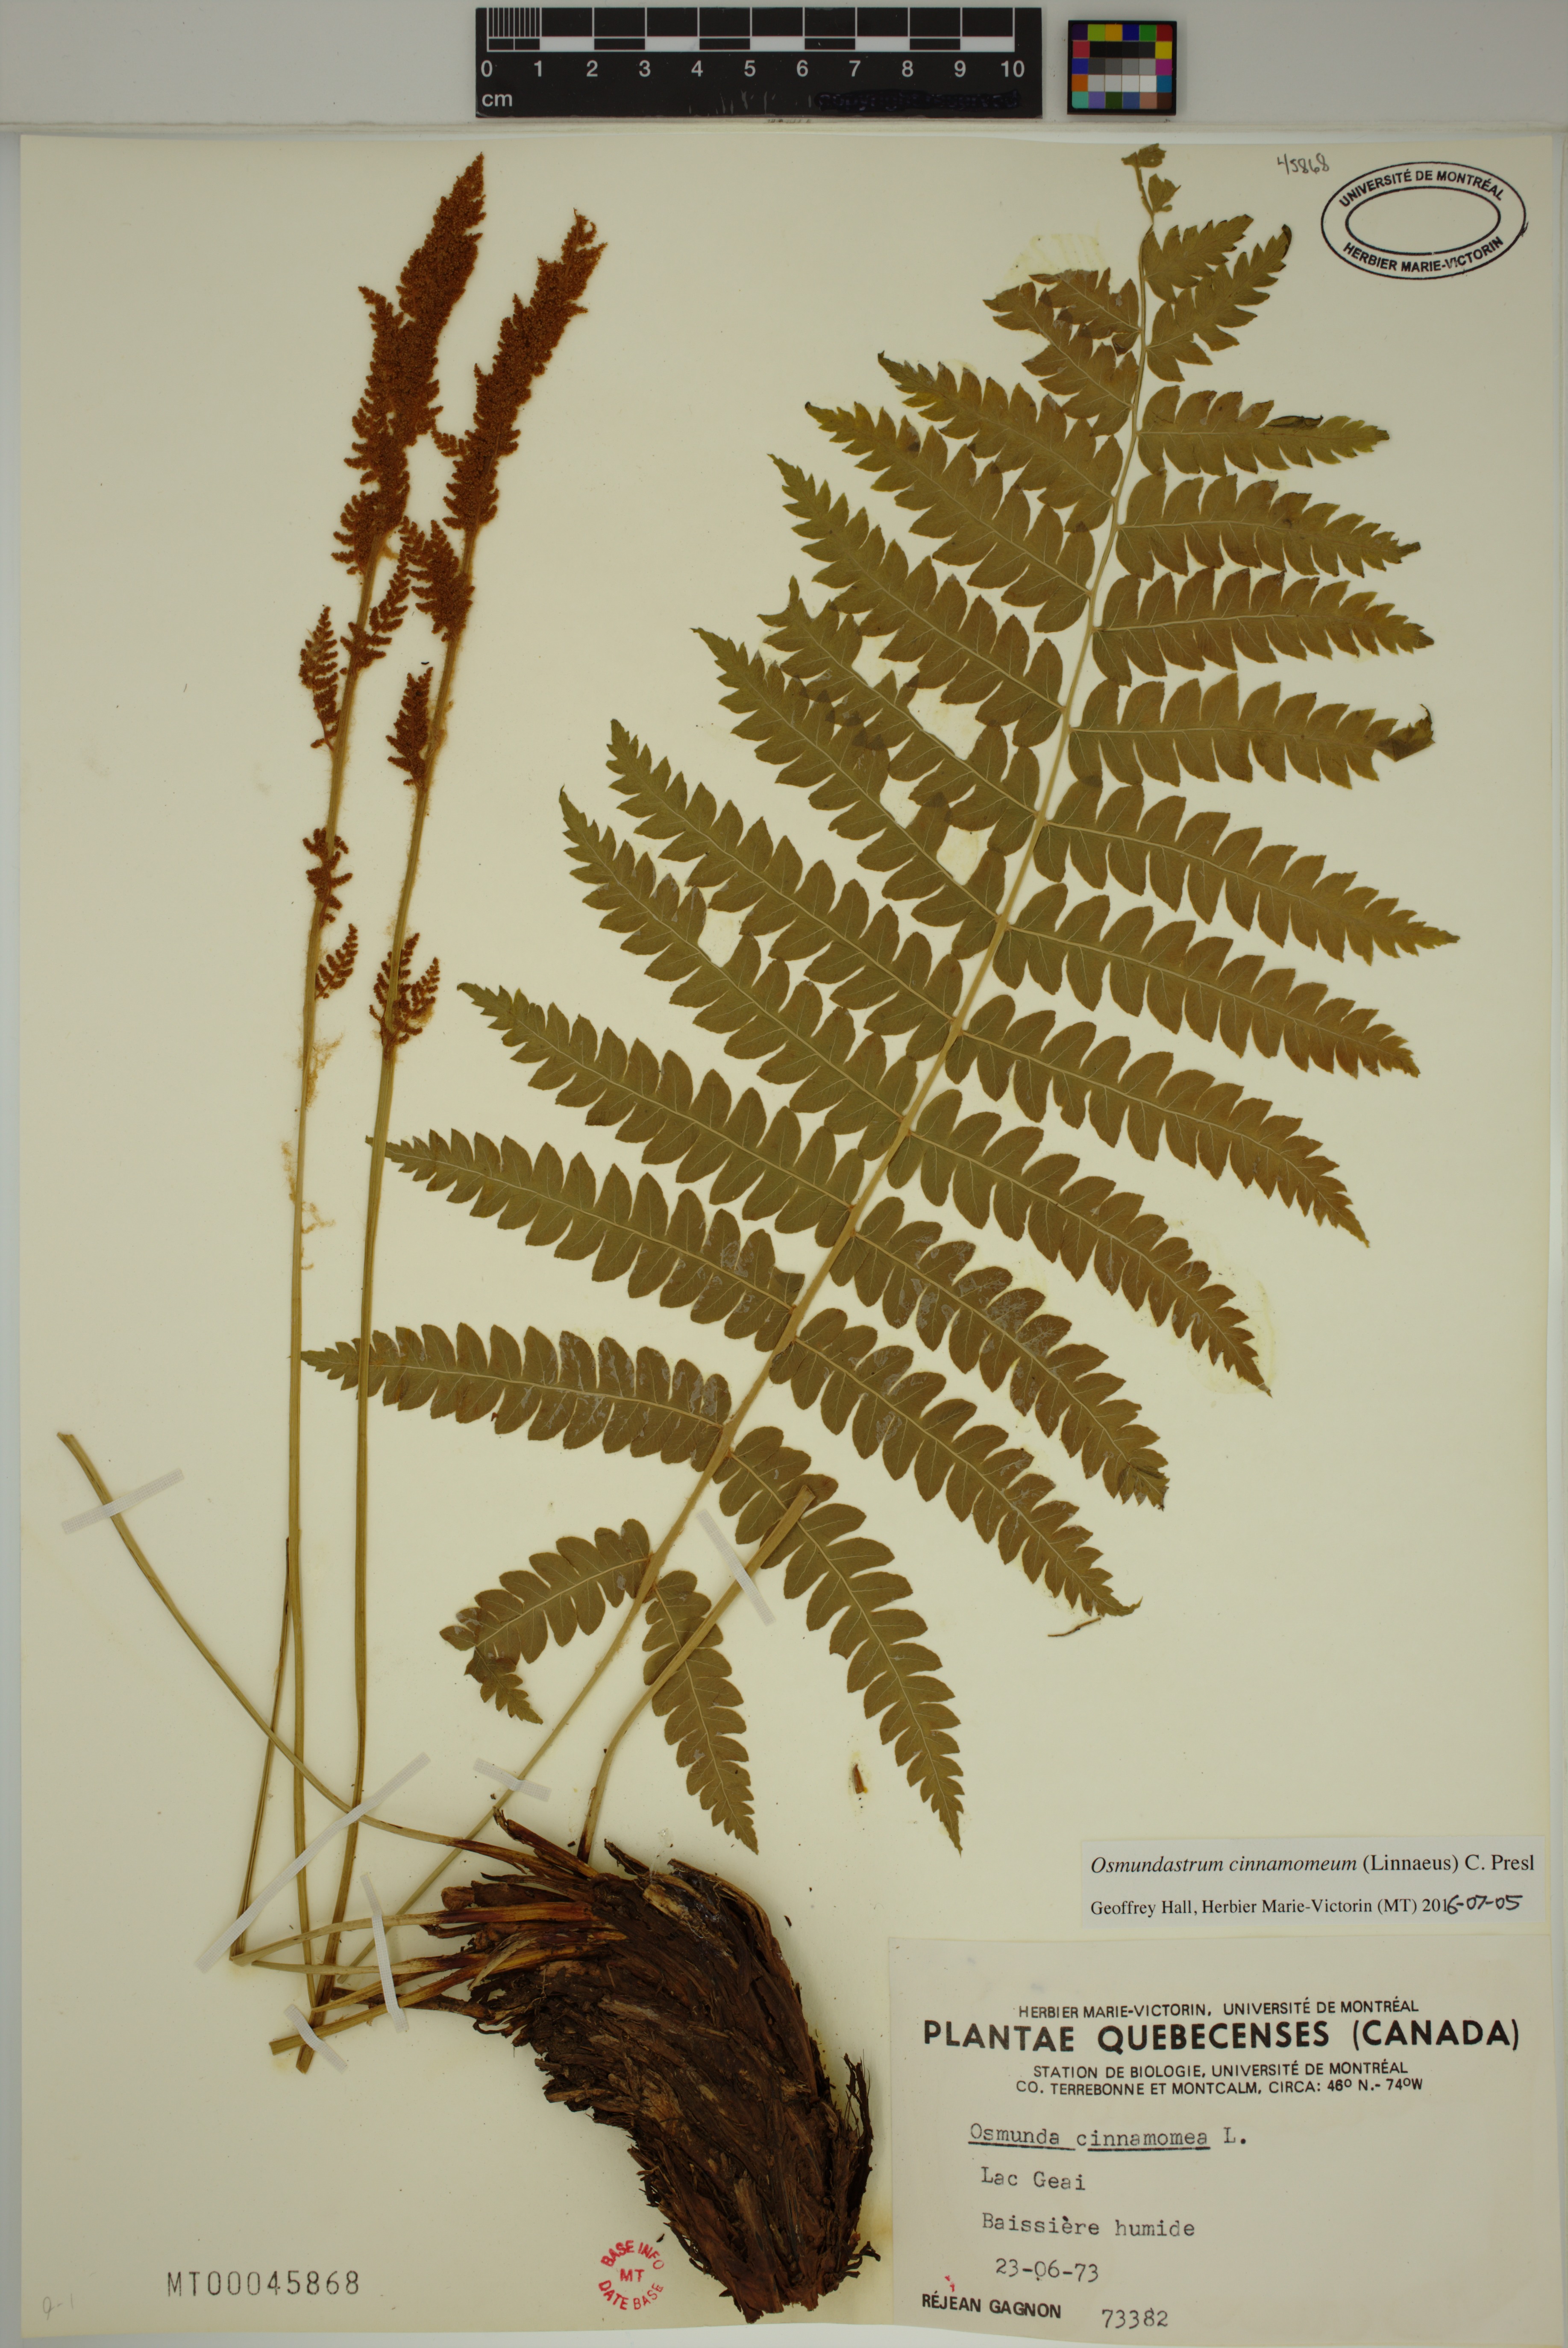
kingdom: Plantae
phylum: Tracheophyta
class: Polypodiopsida
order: Osmundales
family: Osmundaceae
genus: Osmundastrum
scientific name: Osmundastrum cinnamomeum
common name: Cinnamon fern
